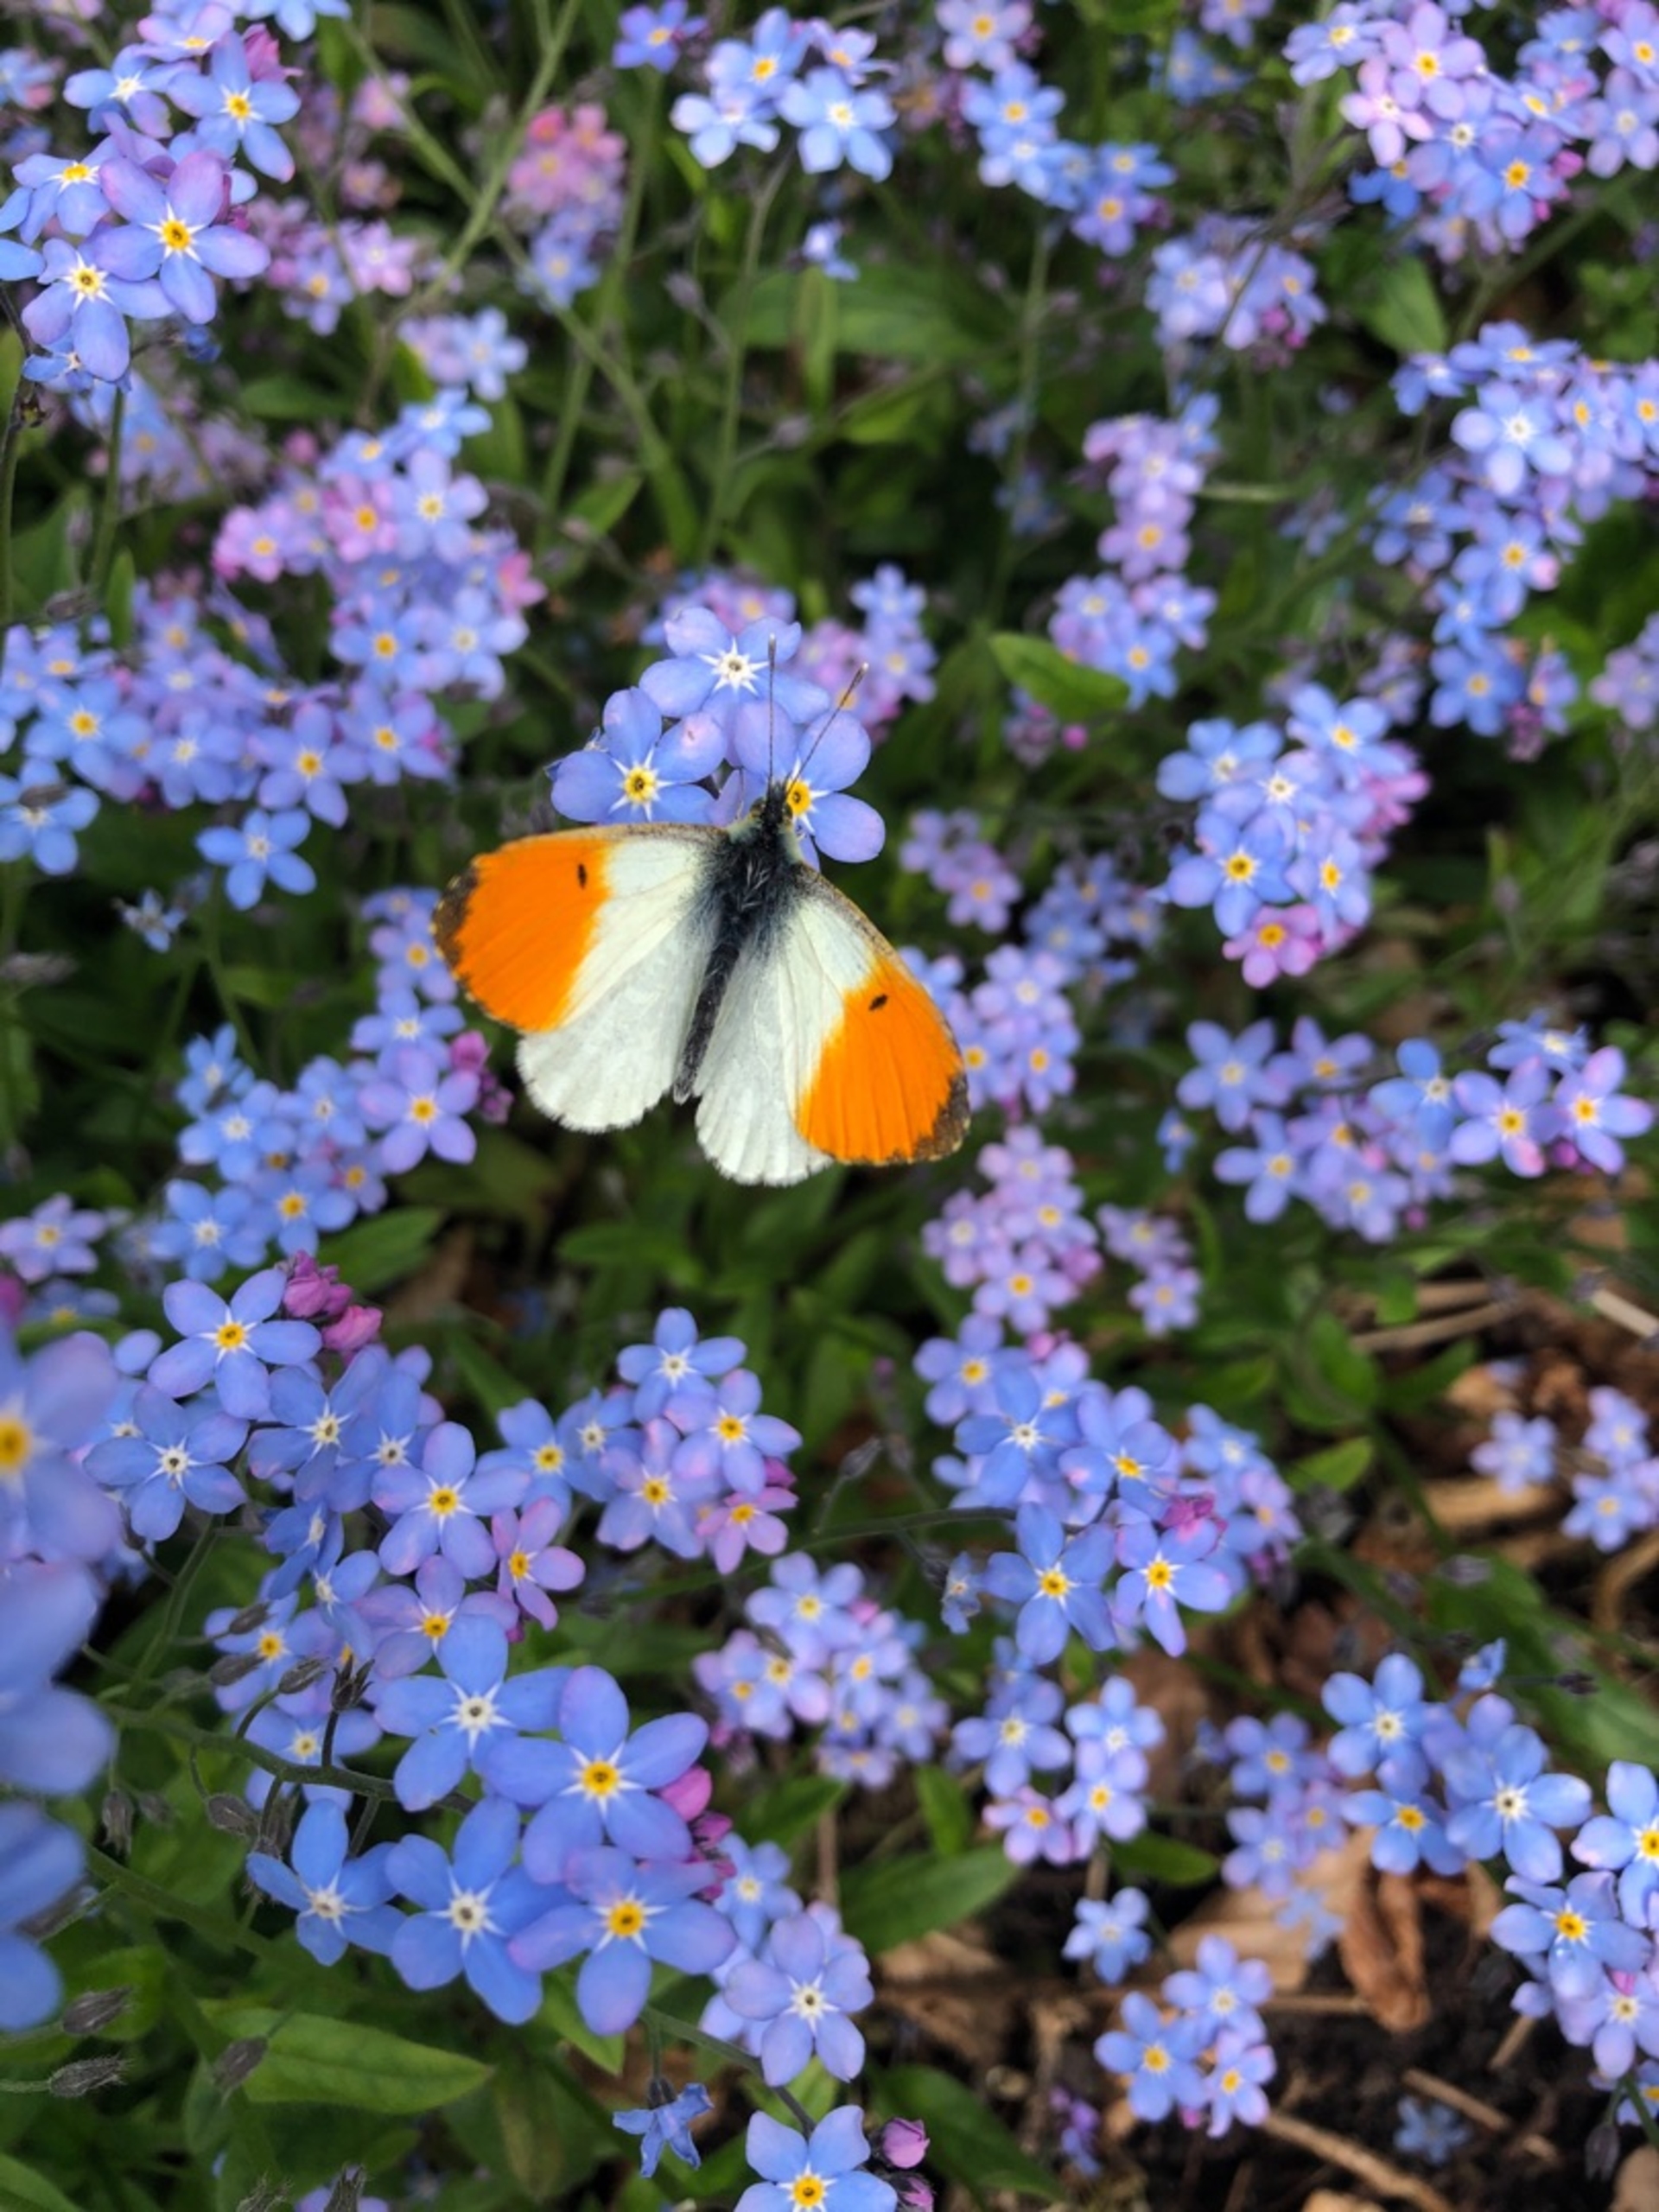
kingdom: Animalia
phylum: Arthropoda
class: Insecta
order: Lepidoptera
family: Pieridae
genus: Anthocharis
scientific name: Anthocharis cardamines
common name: Aurora
